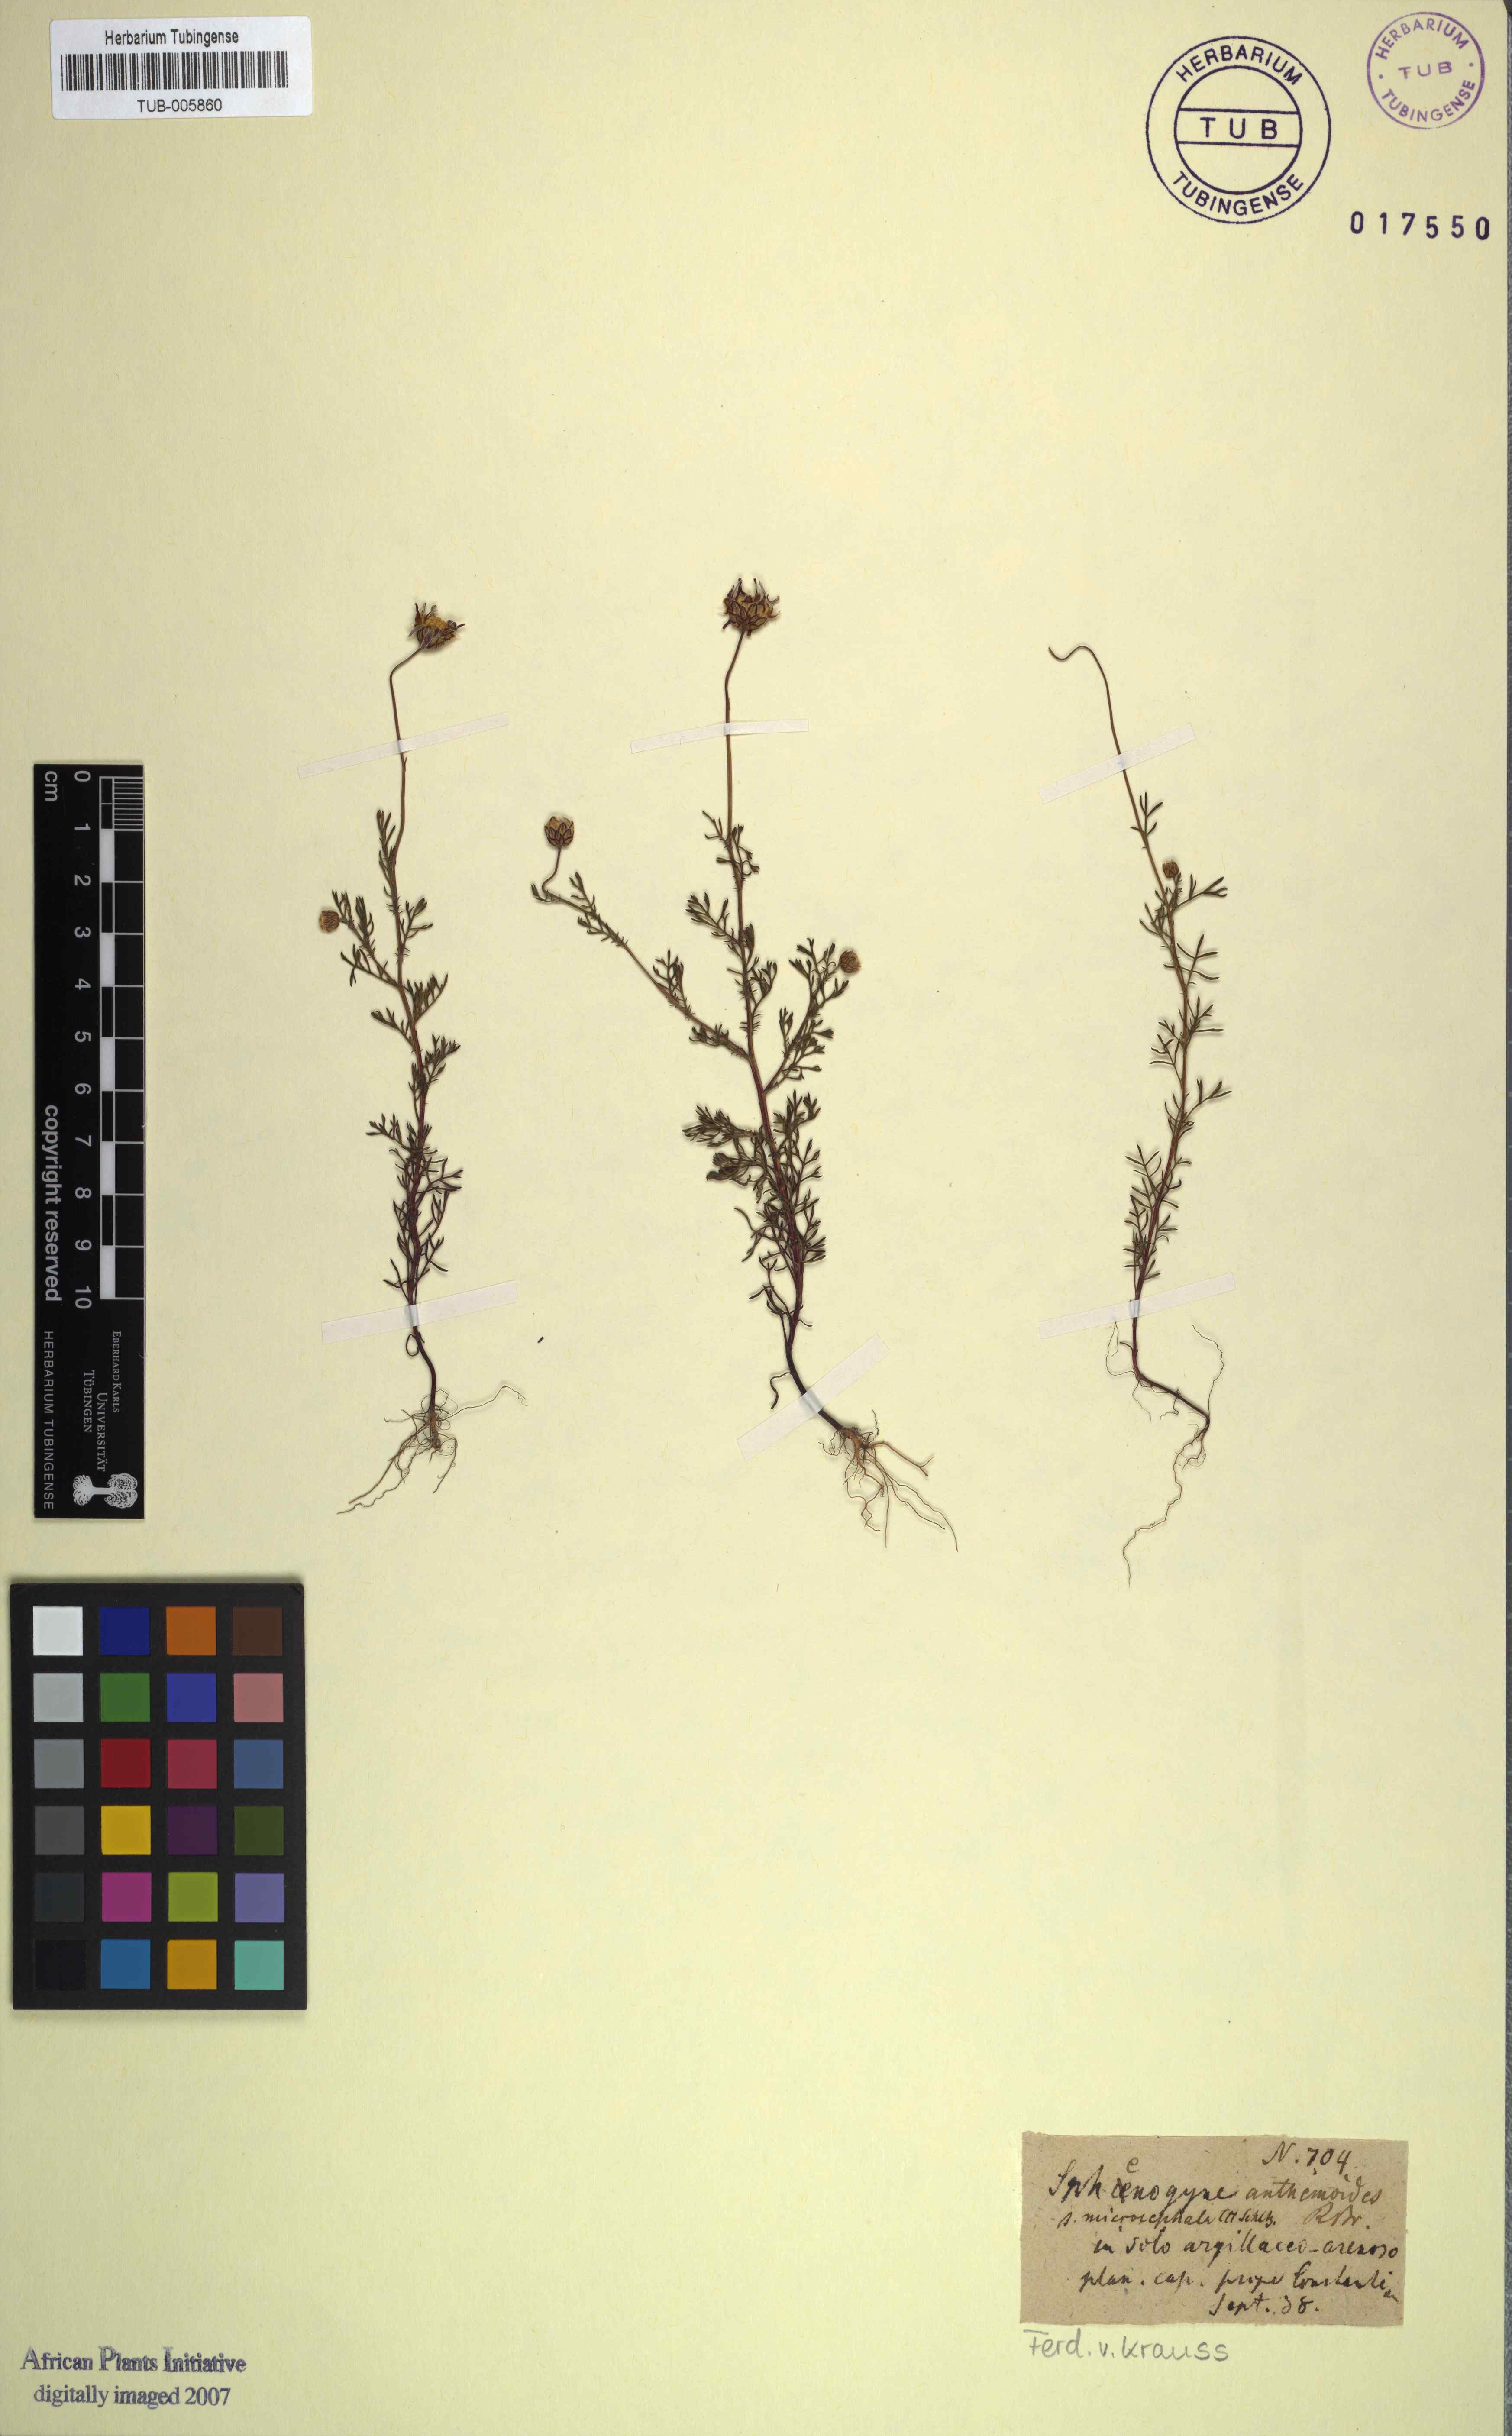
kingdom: Plantae
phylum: Tracheophyta
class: Magnoliopsida
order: Asterales
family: Asteraceae
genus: Ursinia
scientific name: Ursinia anthemoides
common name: Ursinia
